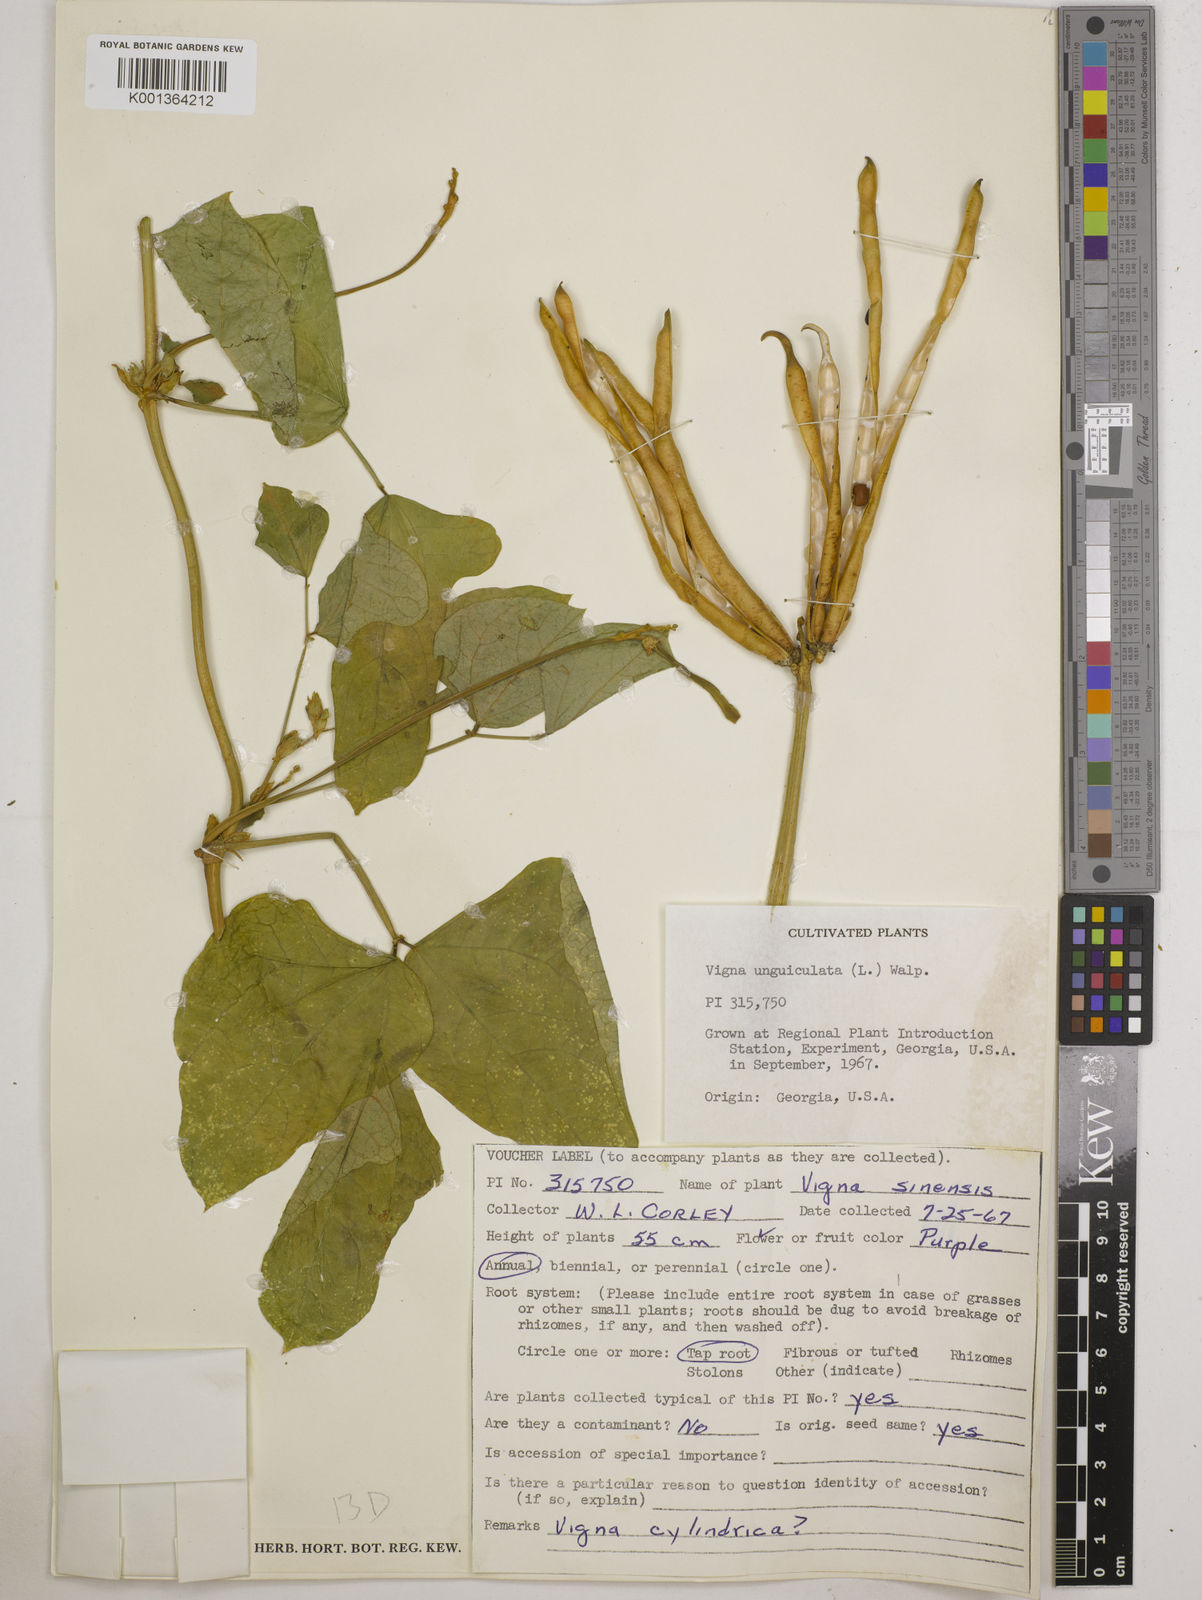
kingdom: Plantae
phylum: Tracheophyta
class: Magnoliopsida
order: Fabales
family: Fabaceae
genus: Vigna
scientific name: Vigna
